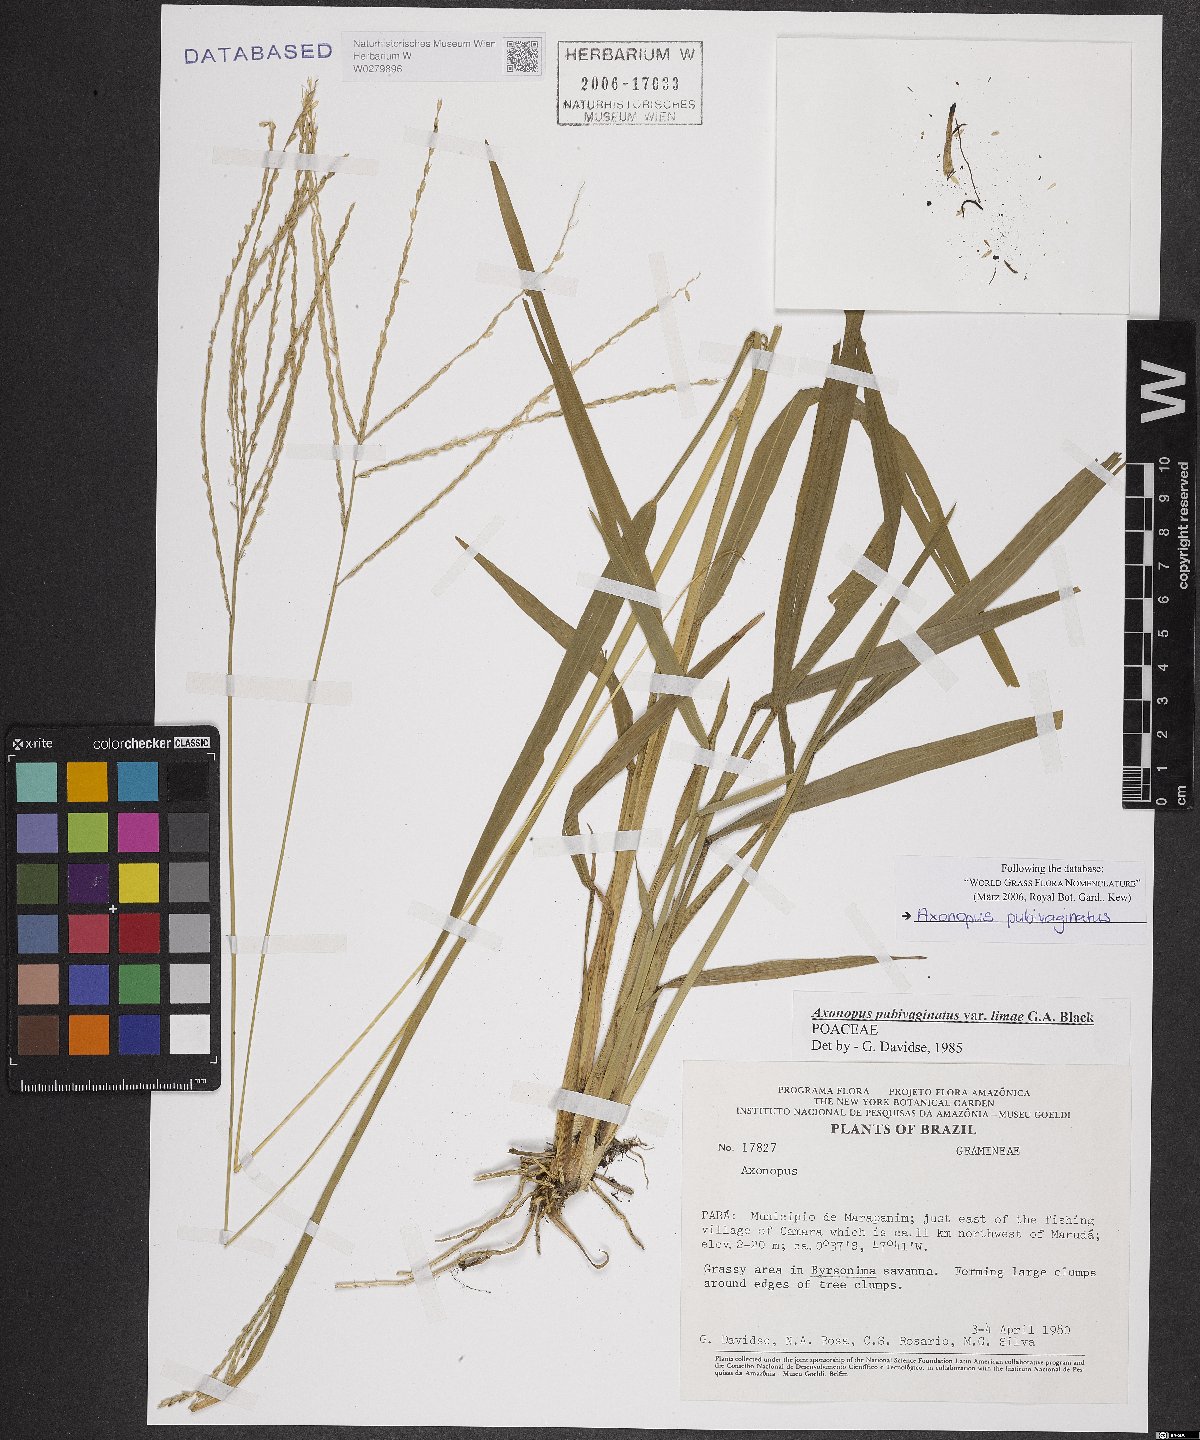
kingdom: Plantae
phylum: Tracheophyta
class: Liliopsida
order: Poales
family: Poaceae
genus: Axonopus
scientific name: Axonopus pubivaginatus
